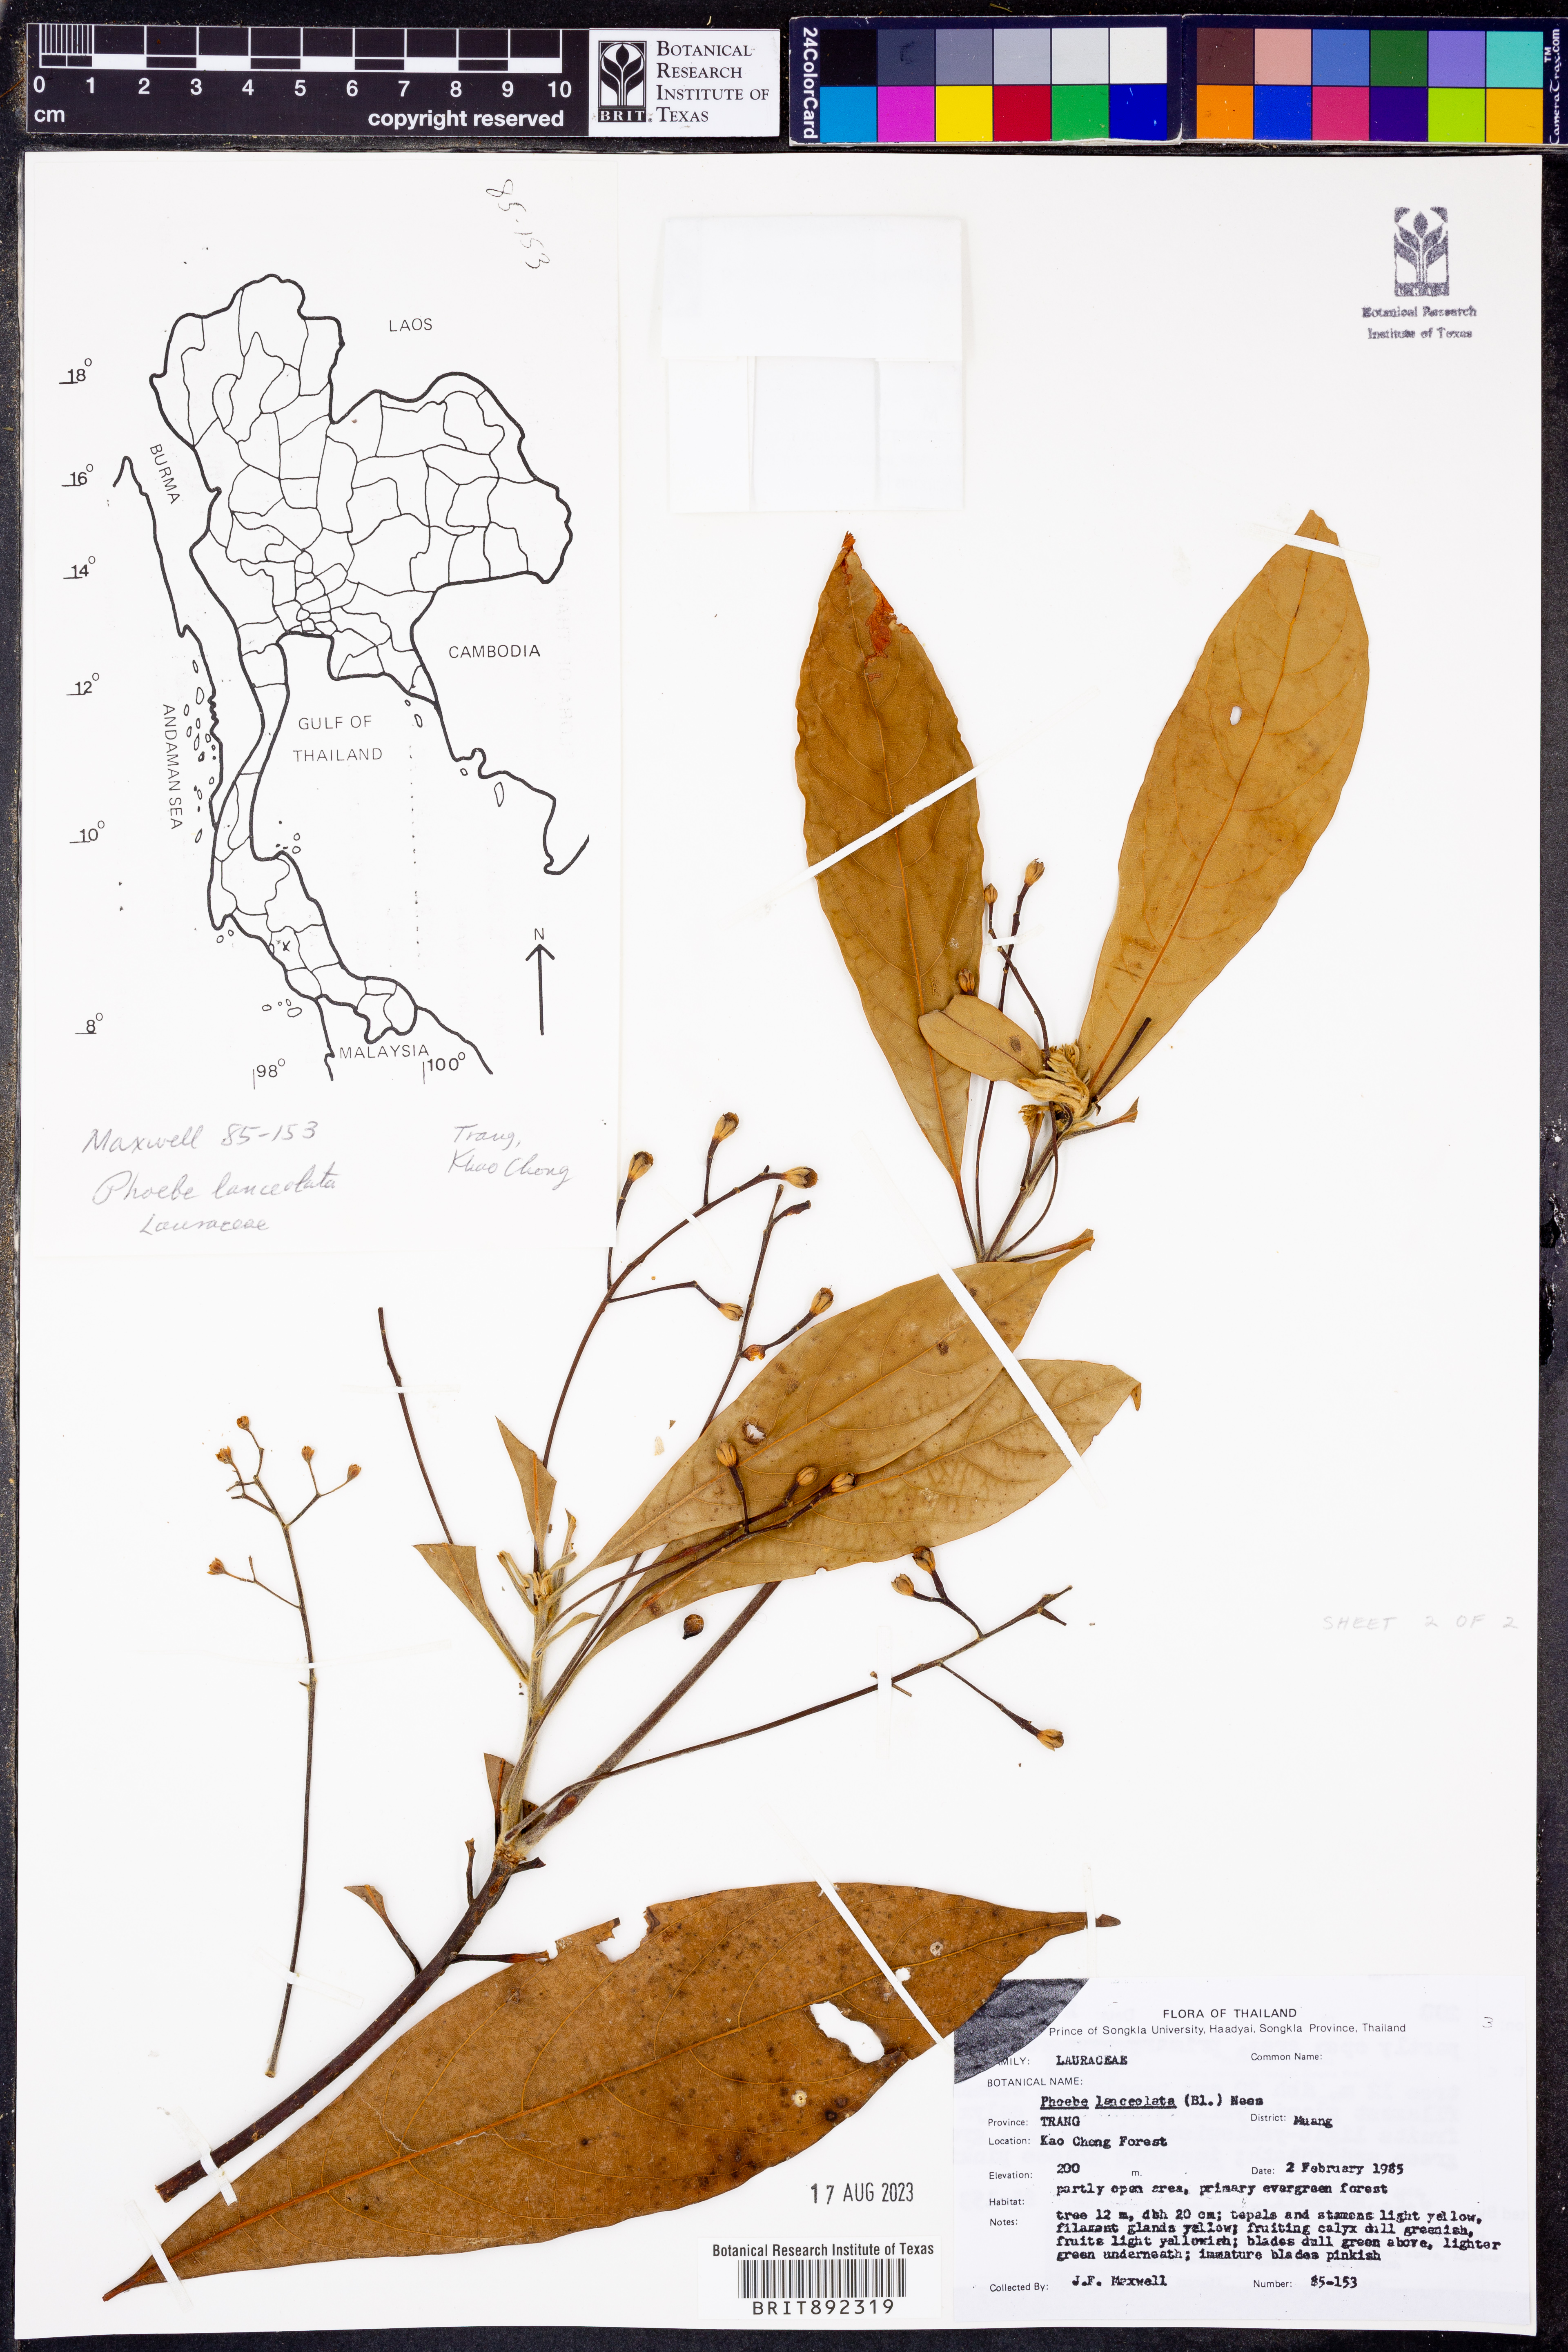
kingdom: Plantae
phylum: Tracheophyta
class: Magnoliopsida
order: Laurales
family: Lauraceae
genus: Phoebe
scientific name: Phoebe lanceolata
